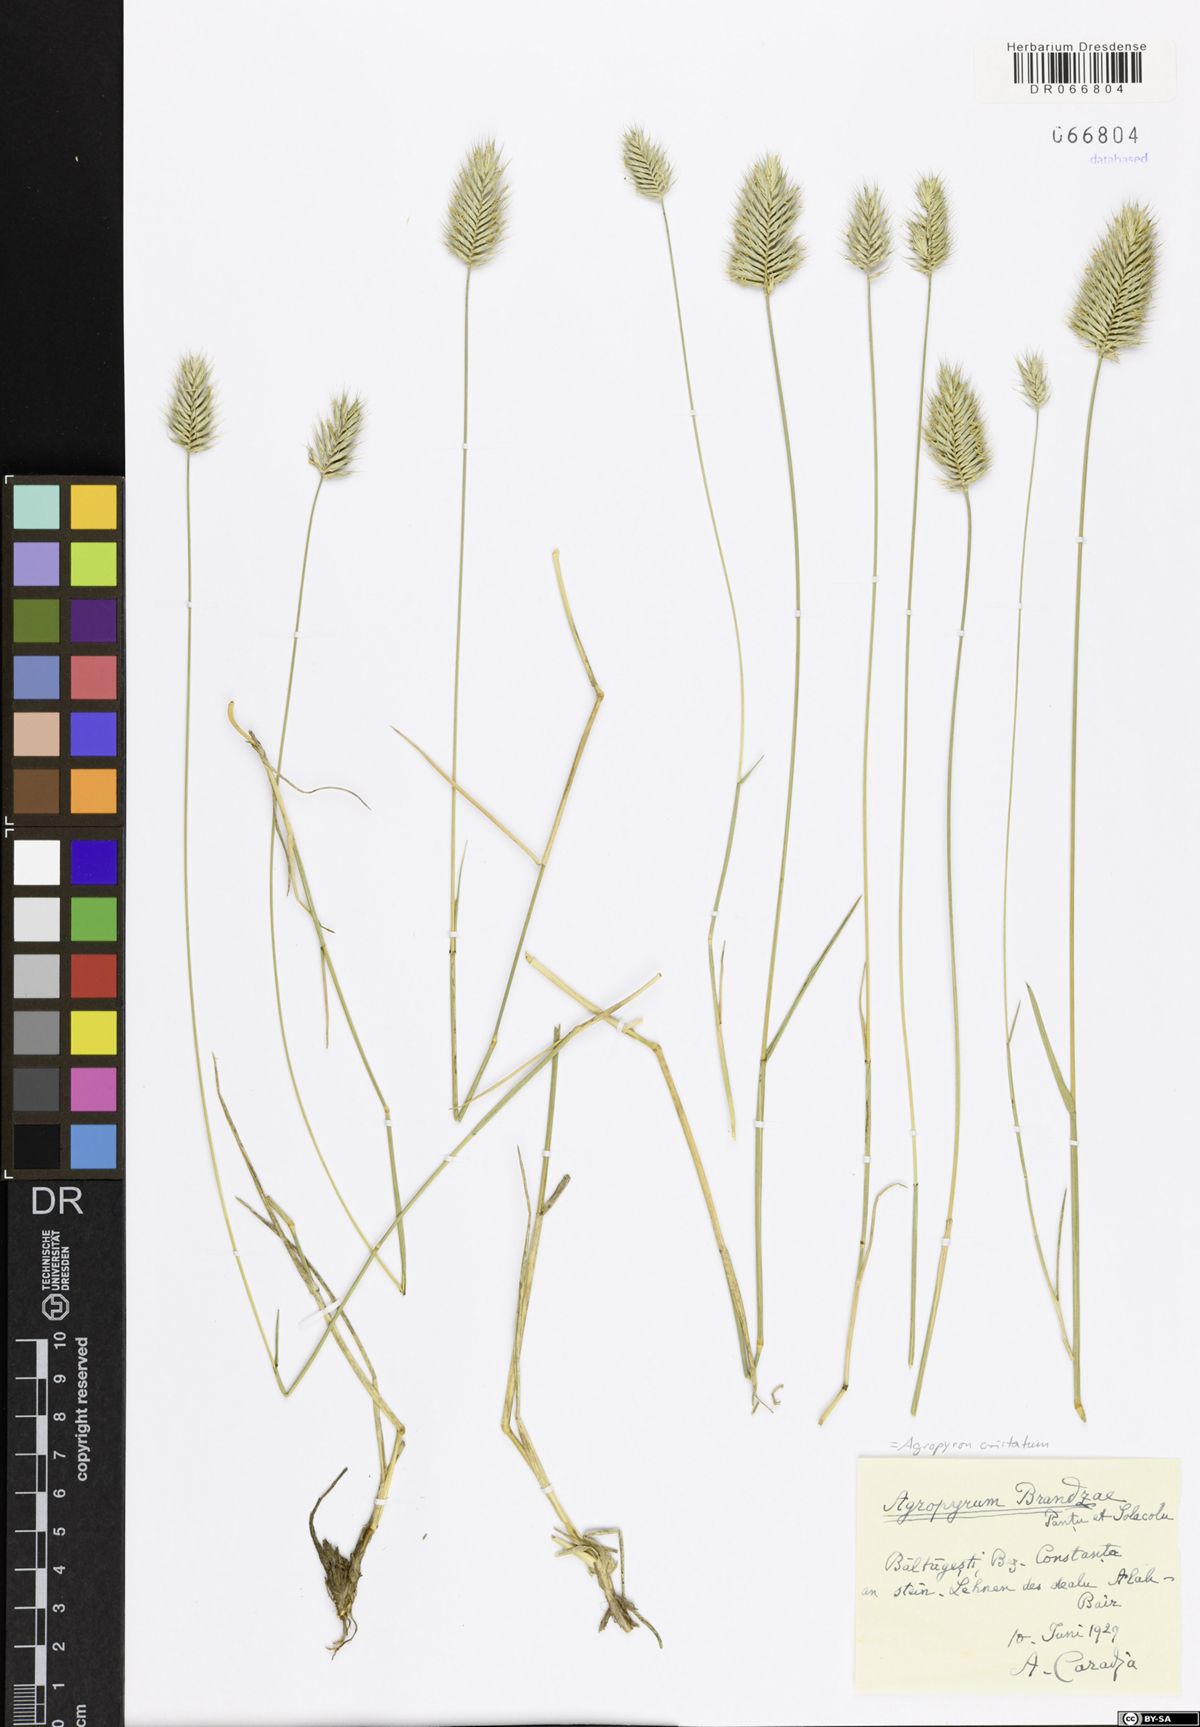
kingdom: Plantae
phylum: Tracheophyta
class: Liliopsida
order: Poales
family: Poaceae
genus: Agropyron
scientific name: Agropyron cristatum
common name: Crested wheatgrass
